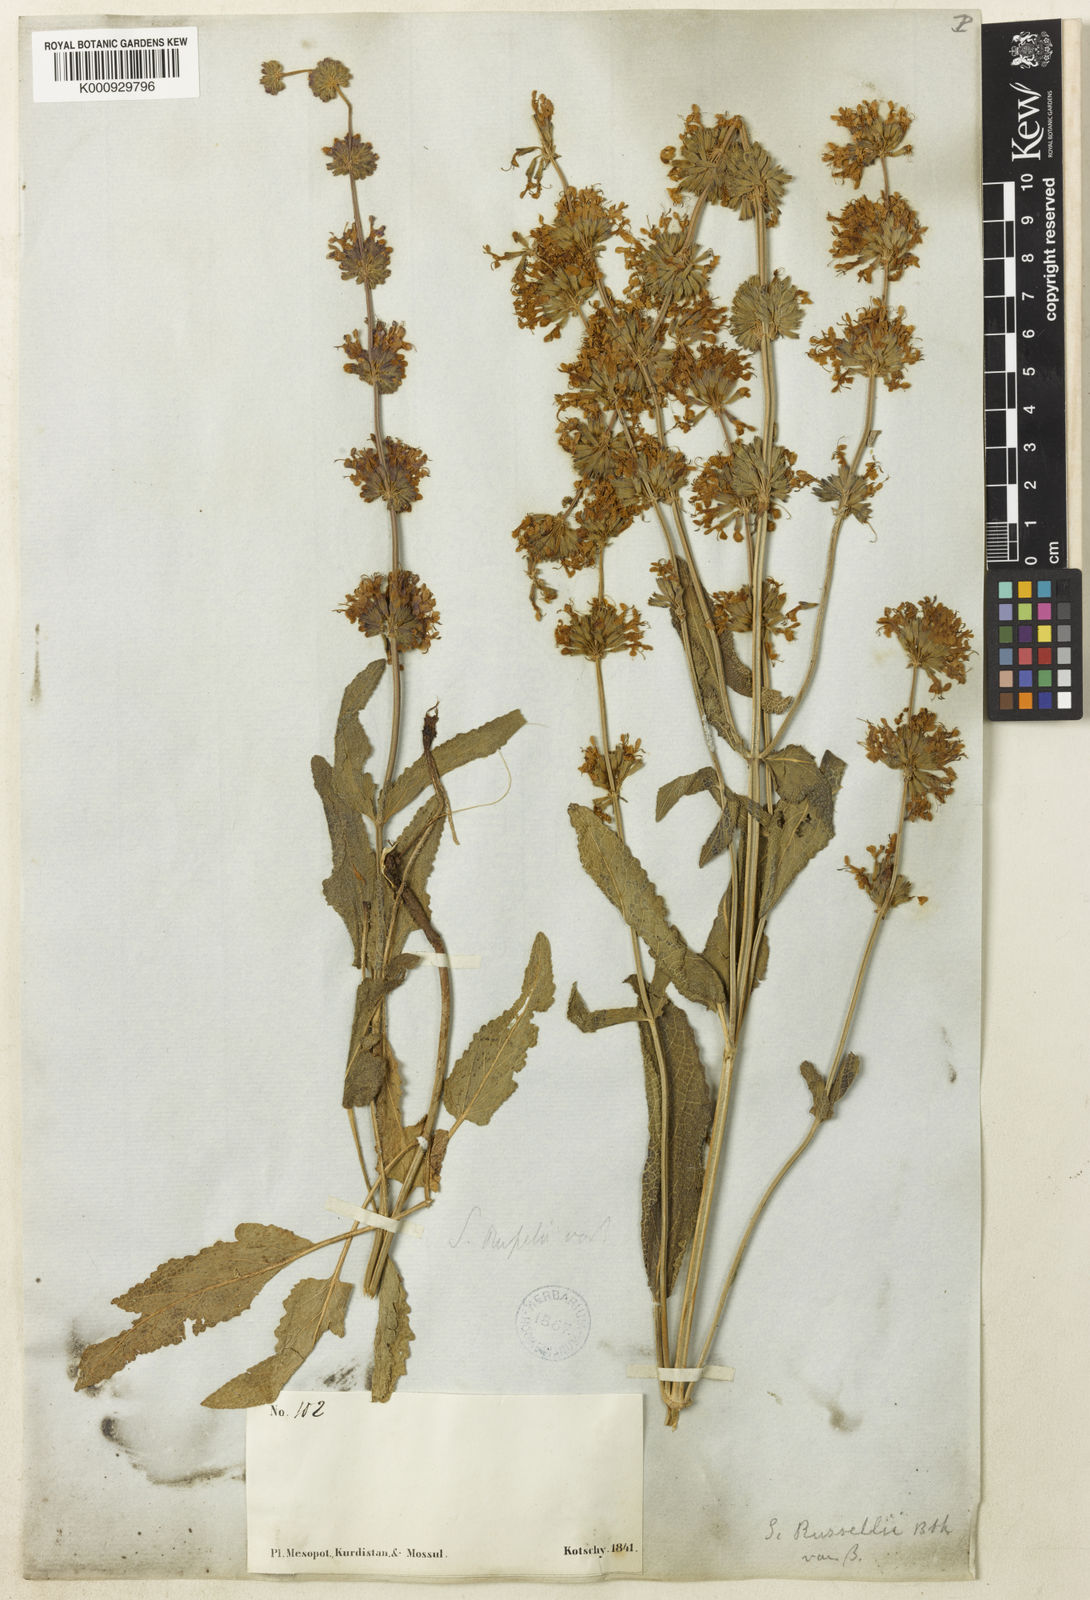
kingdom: Plantae
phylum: Tracheophyta
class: Magnoliopsida
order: Lamiales
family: Lamiaceae
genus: Salvia
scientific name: Salvia russellii
